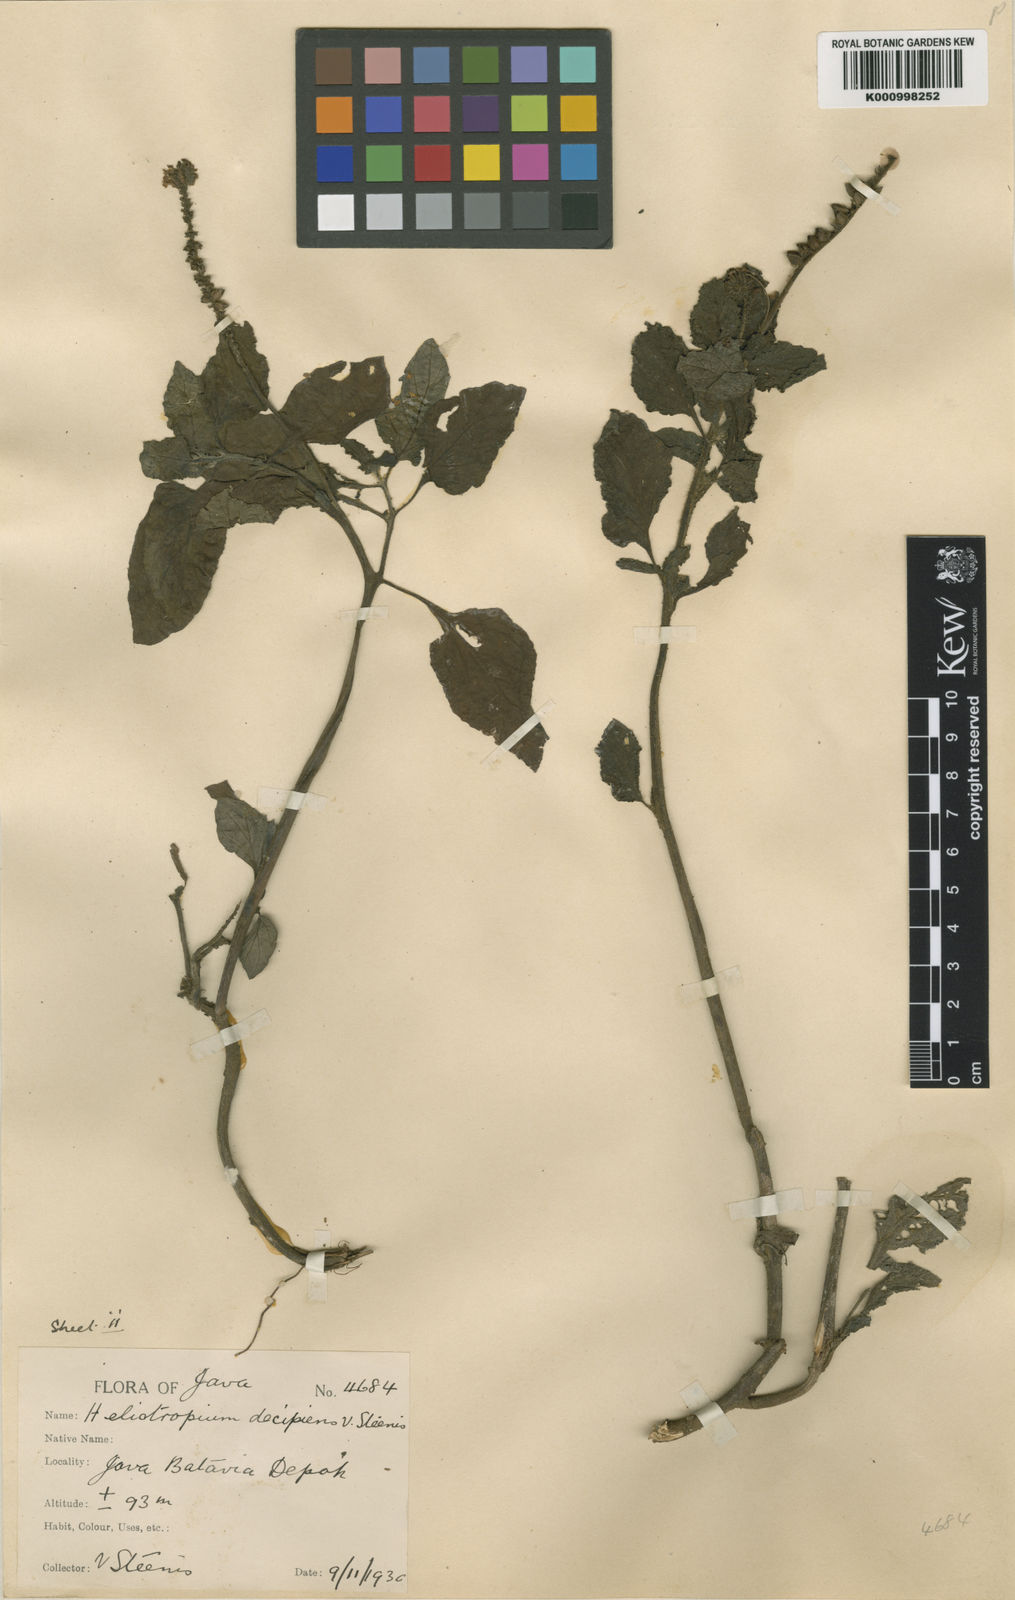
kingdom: Plantae
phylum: Tracheophyta
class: Magnoliopsida
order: Boraginales
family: Heliotropiaceae
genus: Heliotropium
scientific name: Heliotropium
